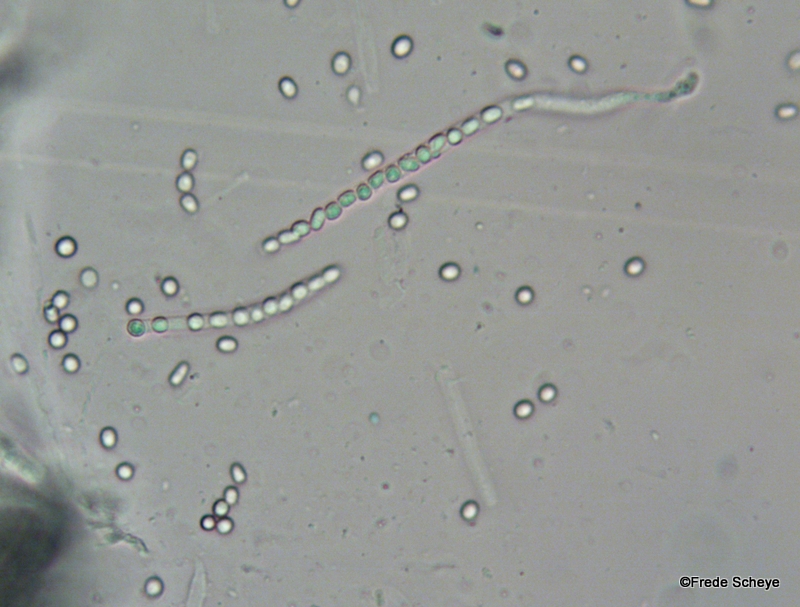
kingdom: Fungi
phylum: Ascomycota
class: Sordariomycetes
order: Hypocreales
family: Hypocreaceae
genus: Trichoderma
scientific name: Trichoderma europaeum
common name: rosabrun kødkerne
